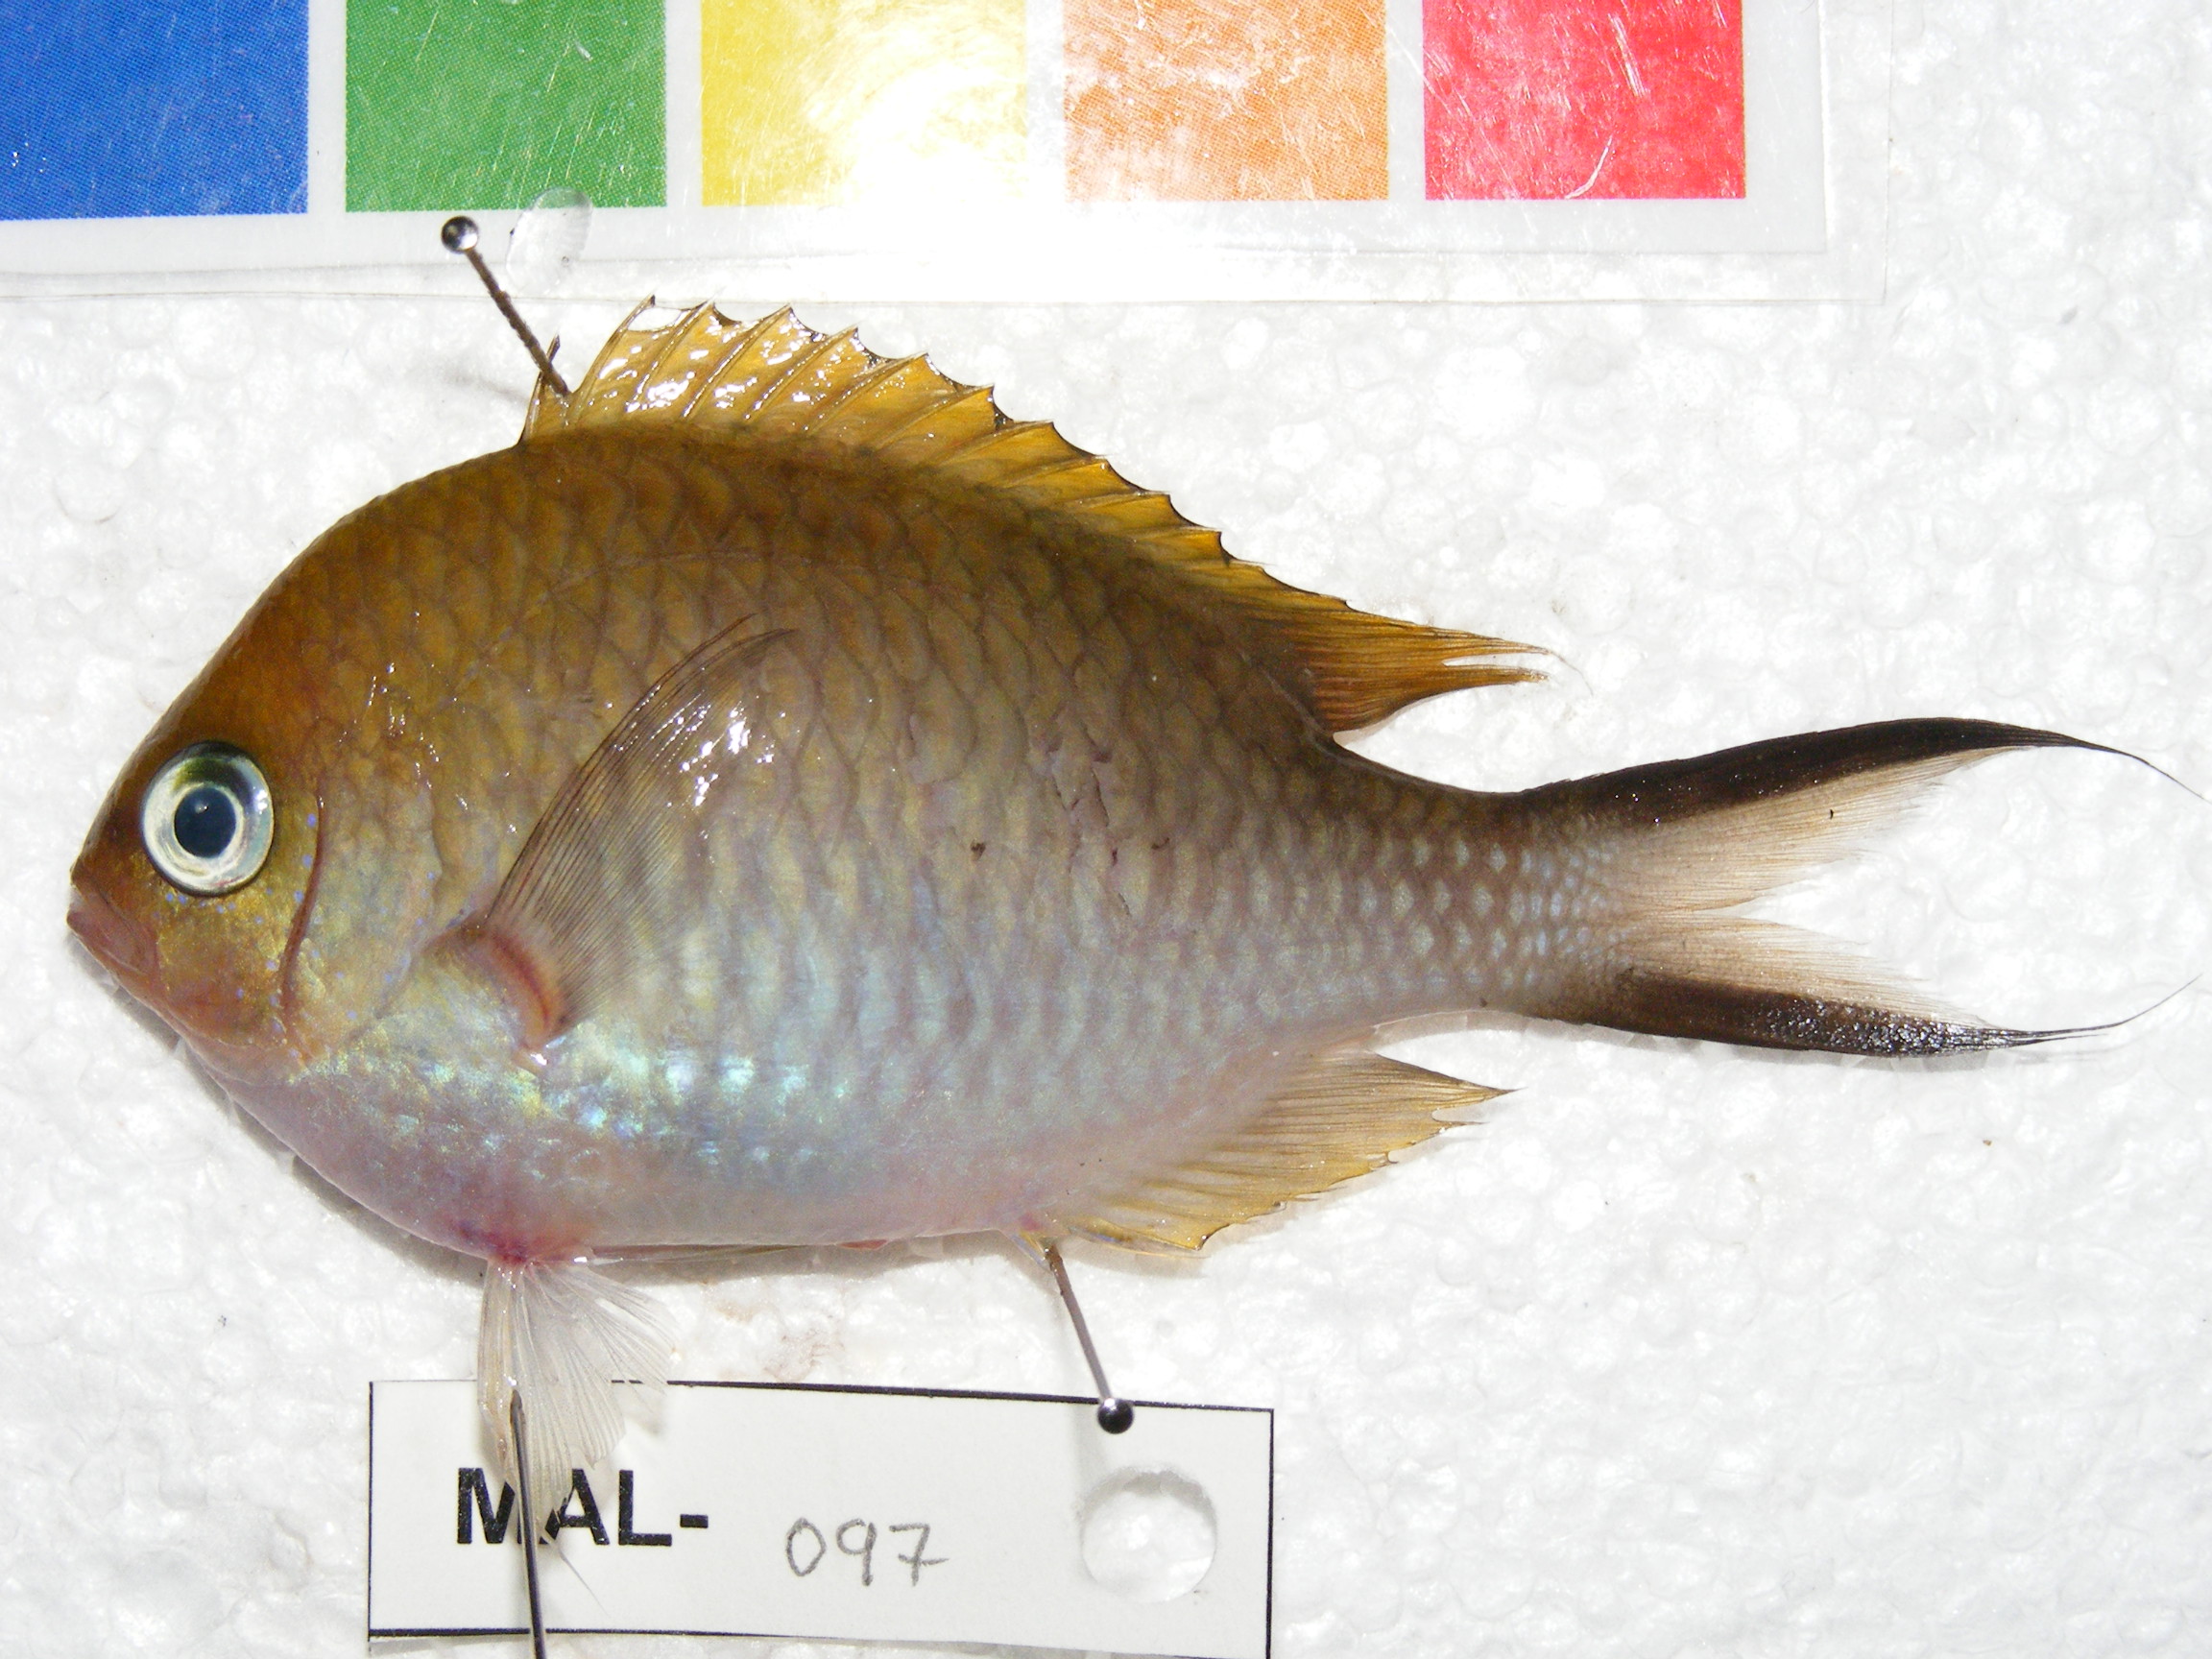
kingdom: Animalia
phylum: Chordata
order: Perciformes
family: Pomacentridae
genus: Chromis
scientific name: Chromis ternatensis
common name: Ternate chromis
